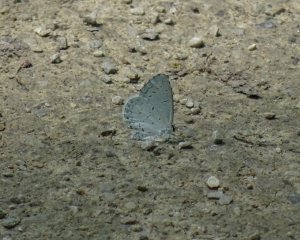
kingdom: Animalia
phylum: Arthropoda
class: Insecta
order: Lepidoptera
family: Lycaenidae
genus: Cyaniris
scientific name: Cyaniris neglecta
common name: Summer Azure
